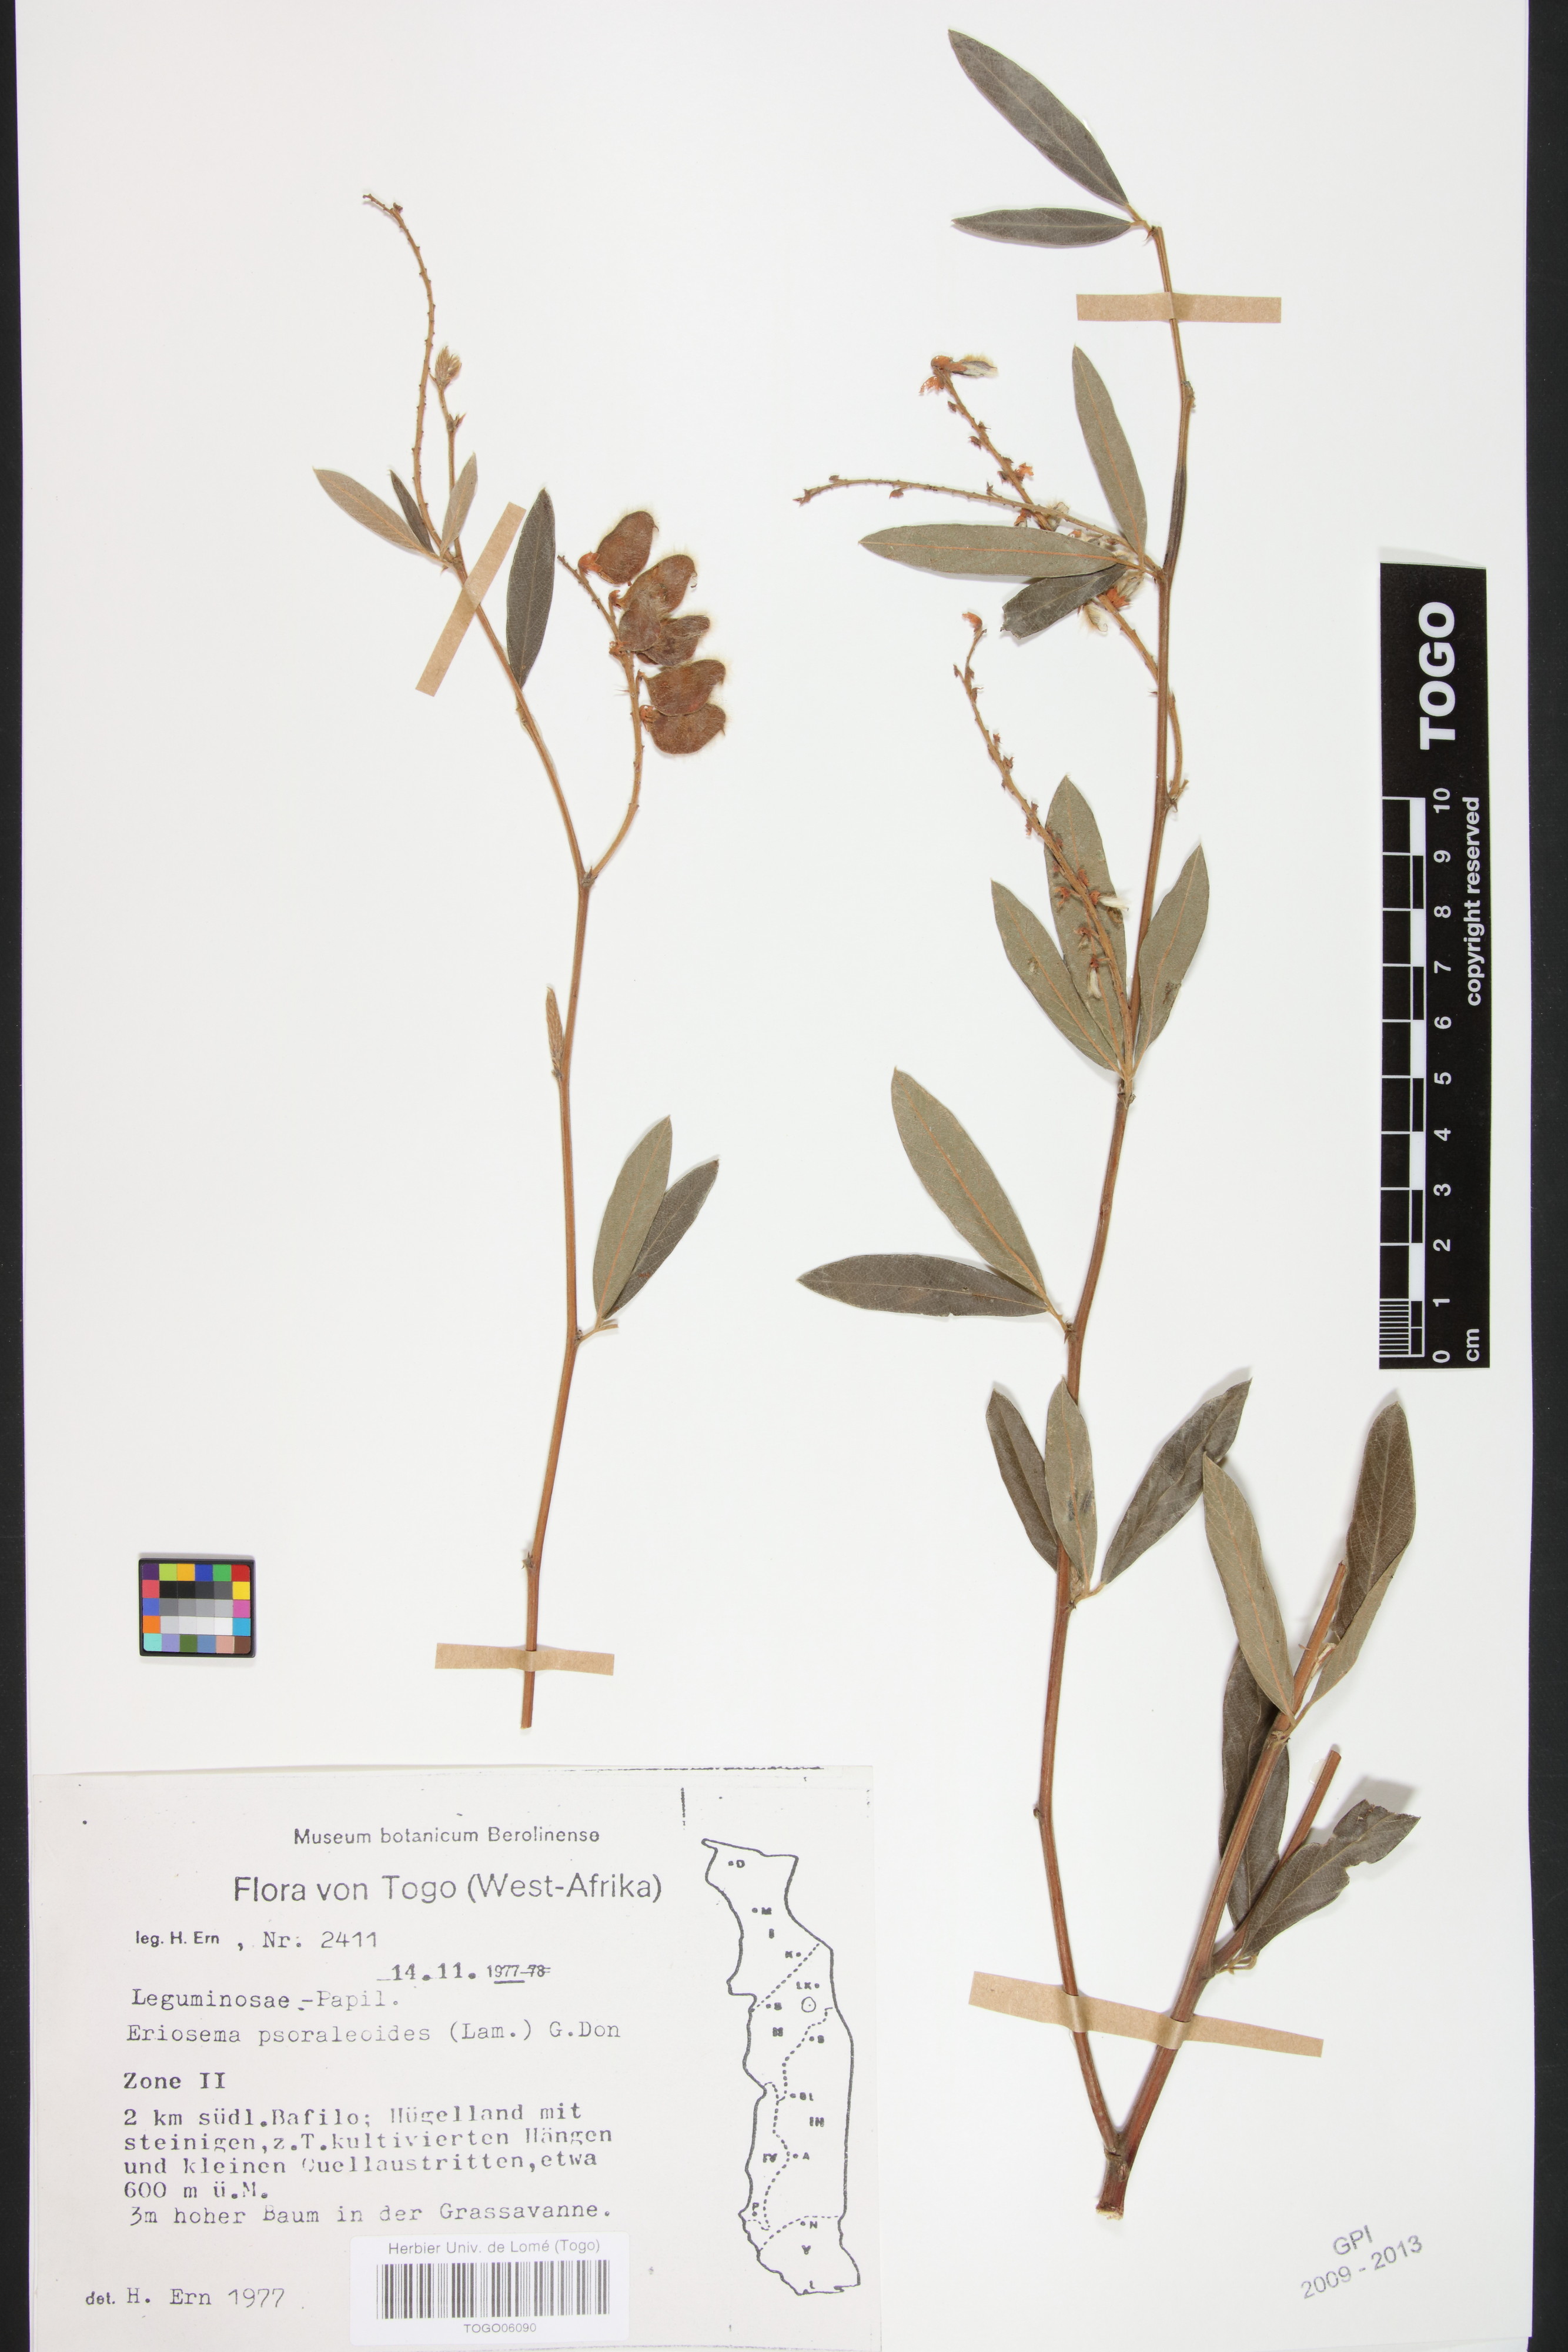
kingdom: Plantae
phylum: Tracheophyta
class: Magnoliopsida
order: Fabales
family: Fabaceae
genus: Eriosema
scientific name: Eriosema psoraleoides
